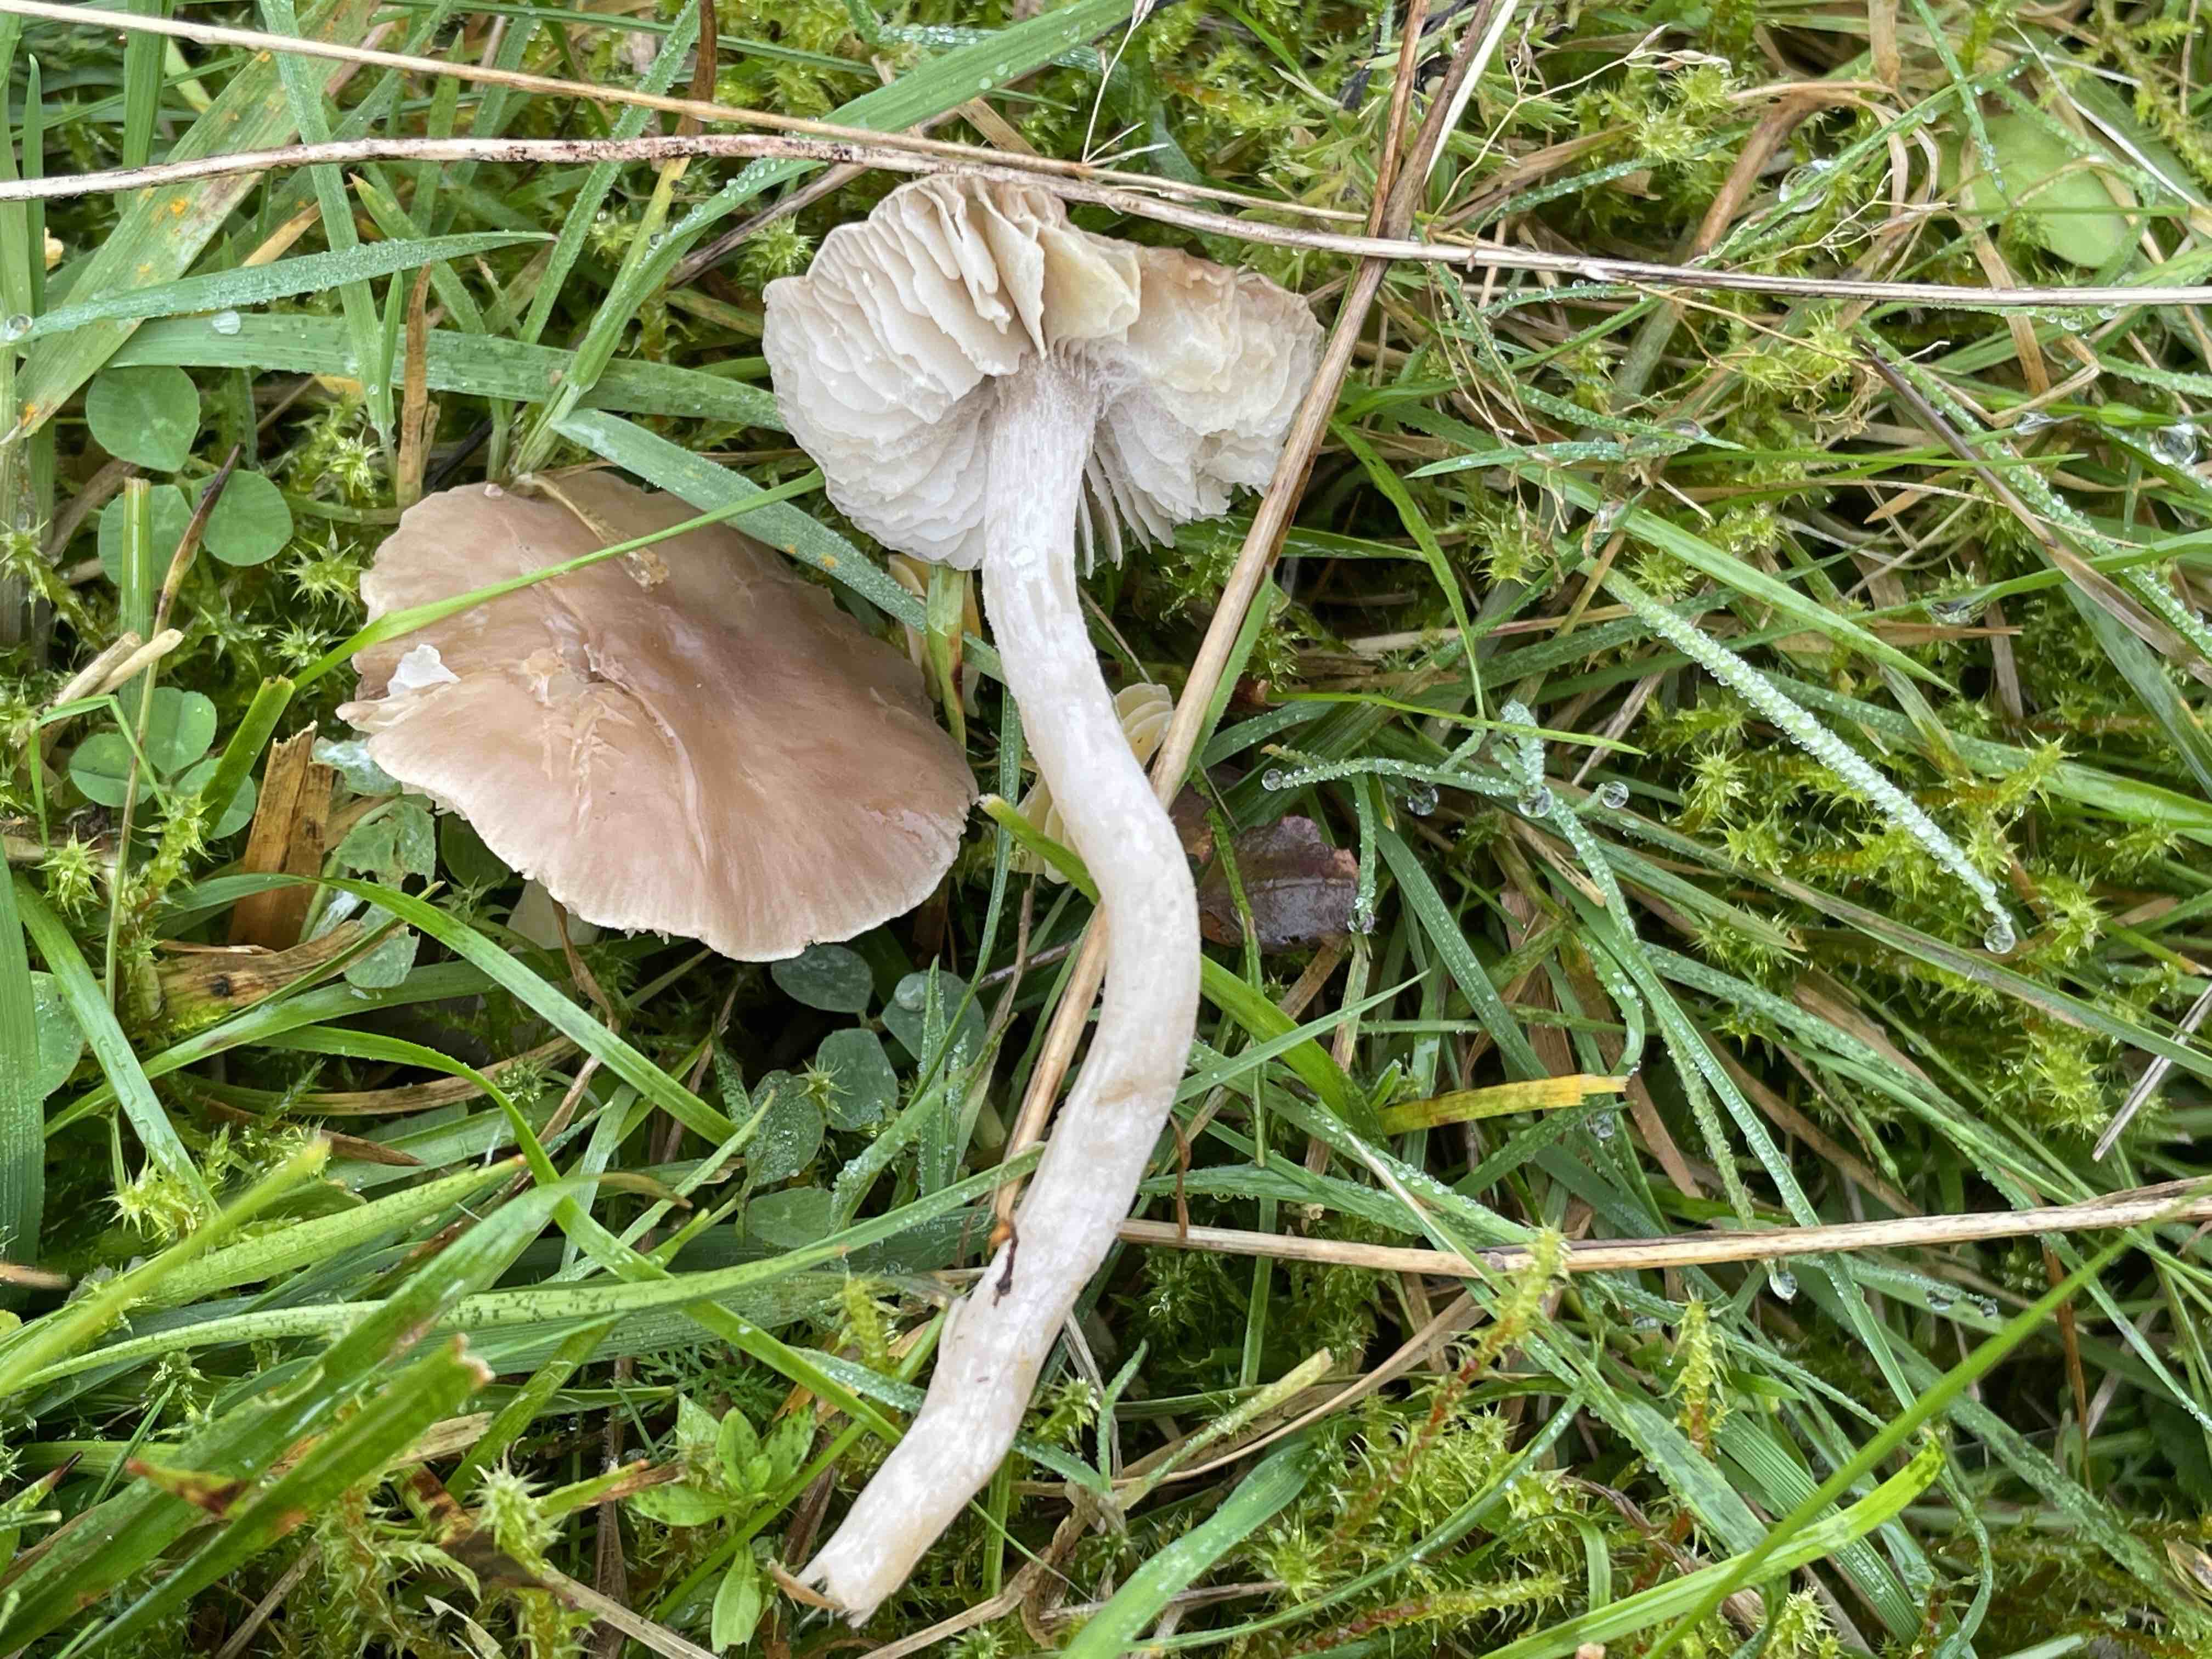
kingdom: Fungi
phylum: Basidiomycota
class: Agaricomycetes
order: Agaricales
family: Tricholomataceae
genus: Dermoloma
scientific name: Dermoloma cuneifolium
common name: eng-nonnehat
